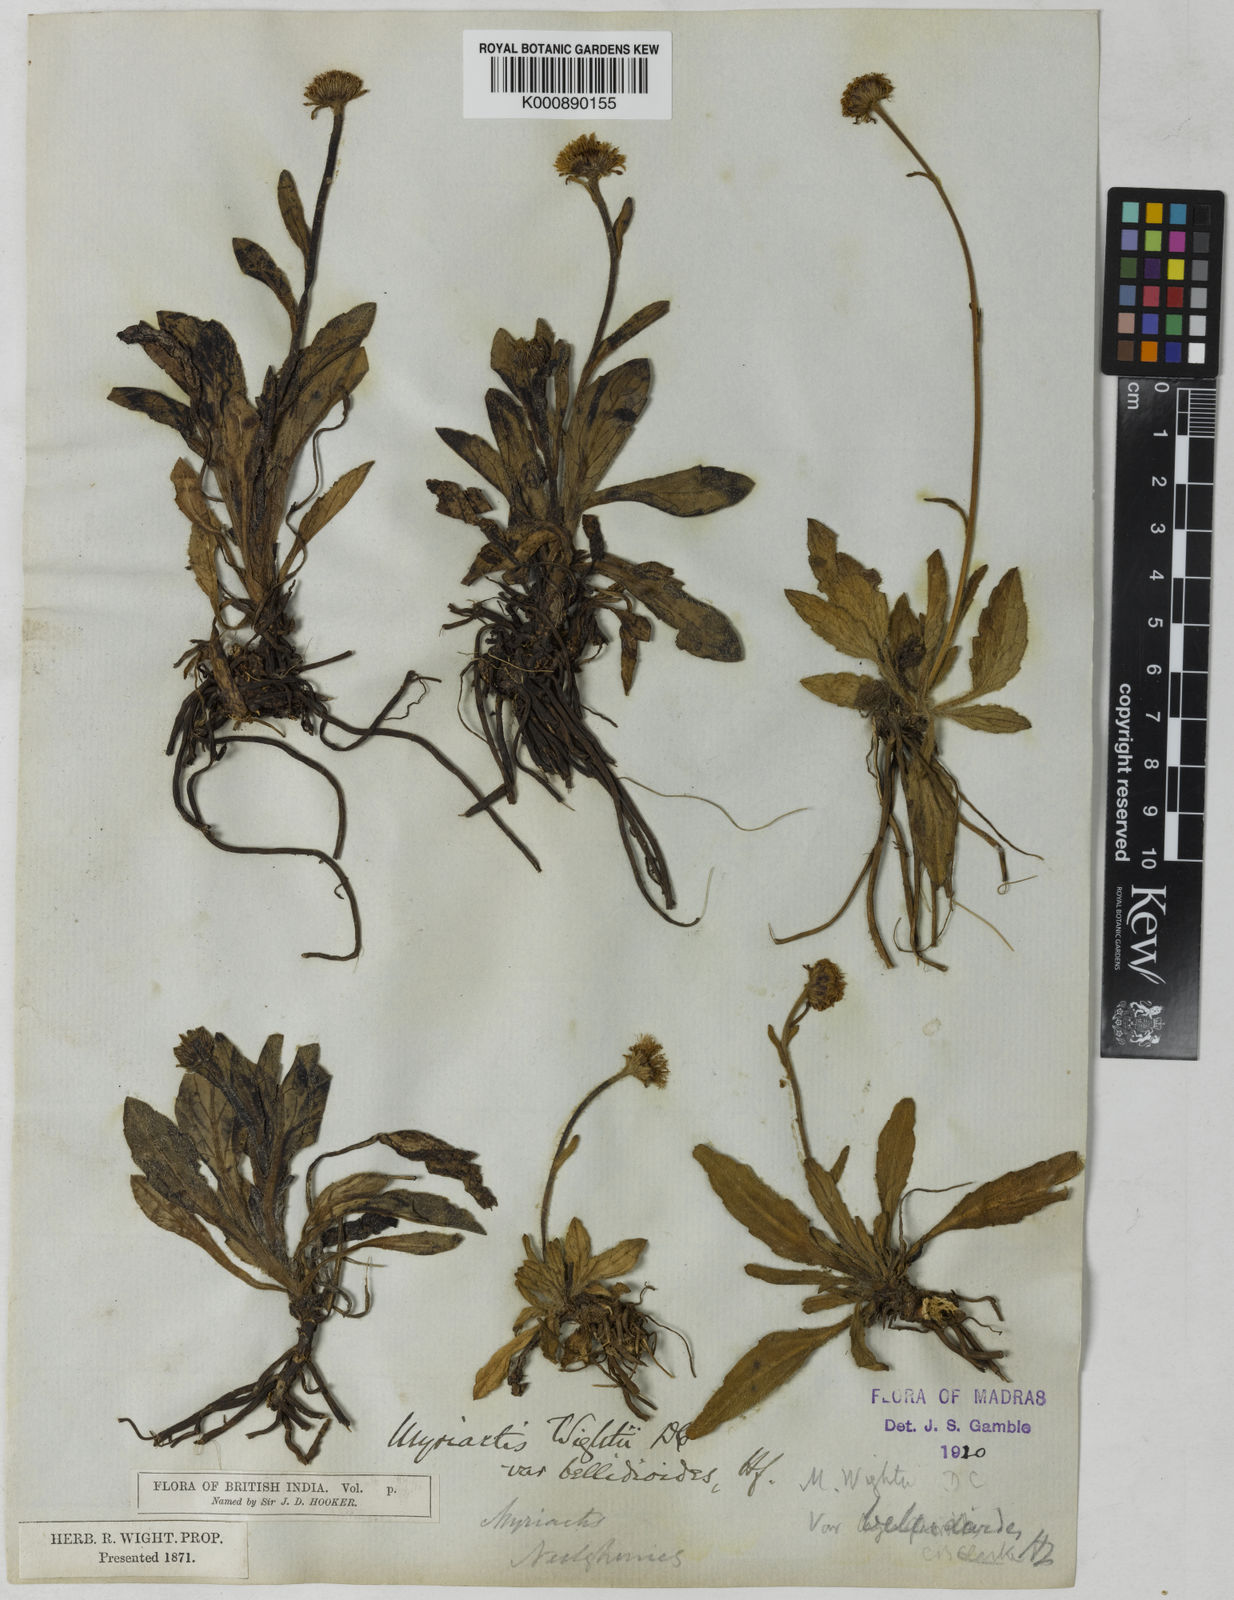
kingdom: Plantae
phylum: Tracheophyta
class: Magnoliopsida
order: Asterales
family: Asteraceae
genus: Myriactis
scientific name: Myriactis wightii
